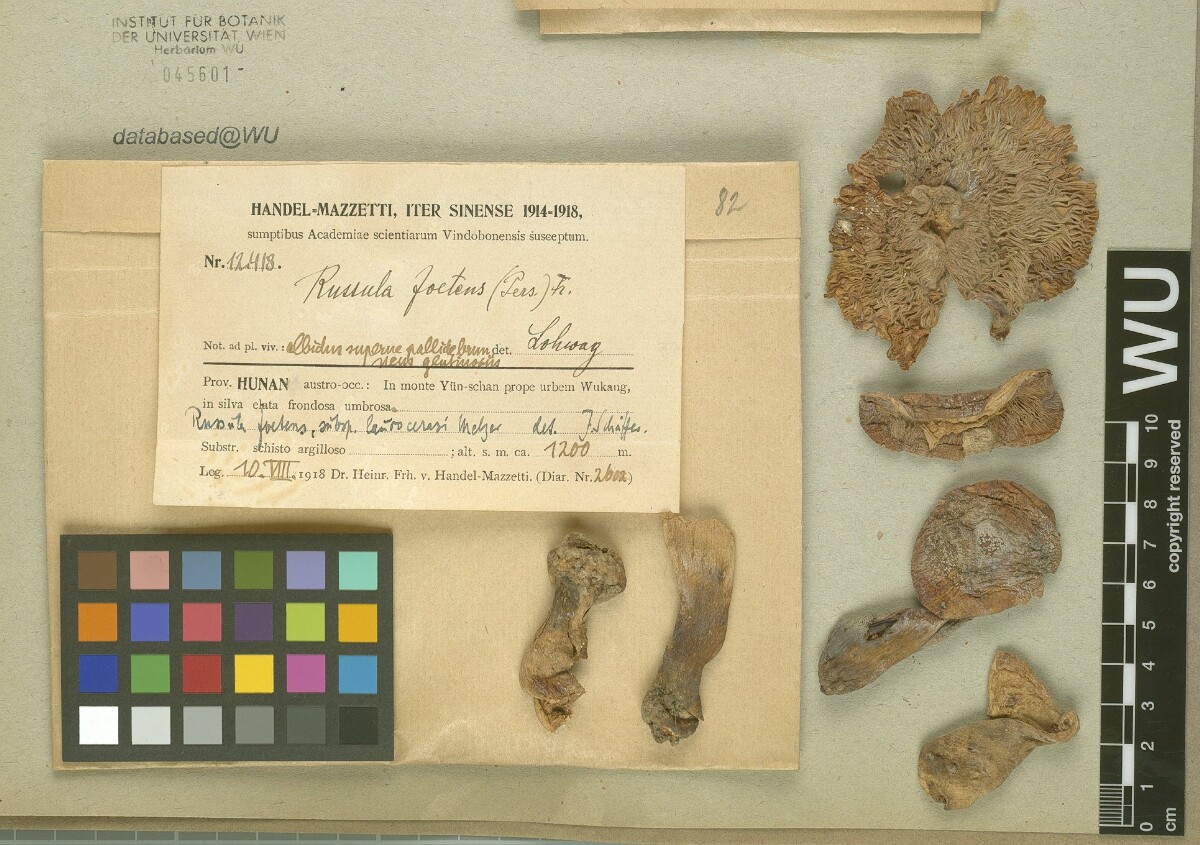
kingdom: Fungi
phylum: Basidiomycota
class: Agaricomycetes
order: Russulales
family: Russulaceae
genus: Russula
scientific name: Russula foetens
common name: Foetid russula
